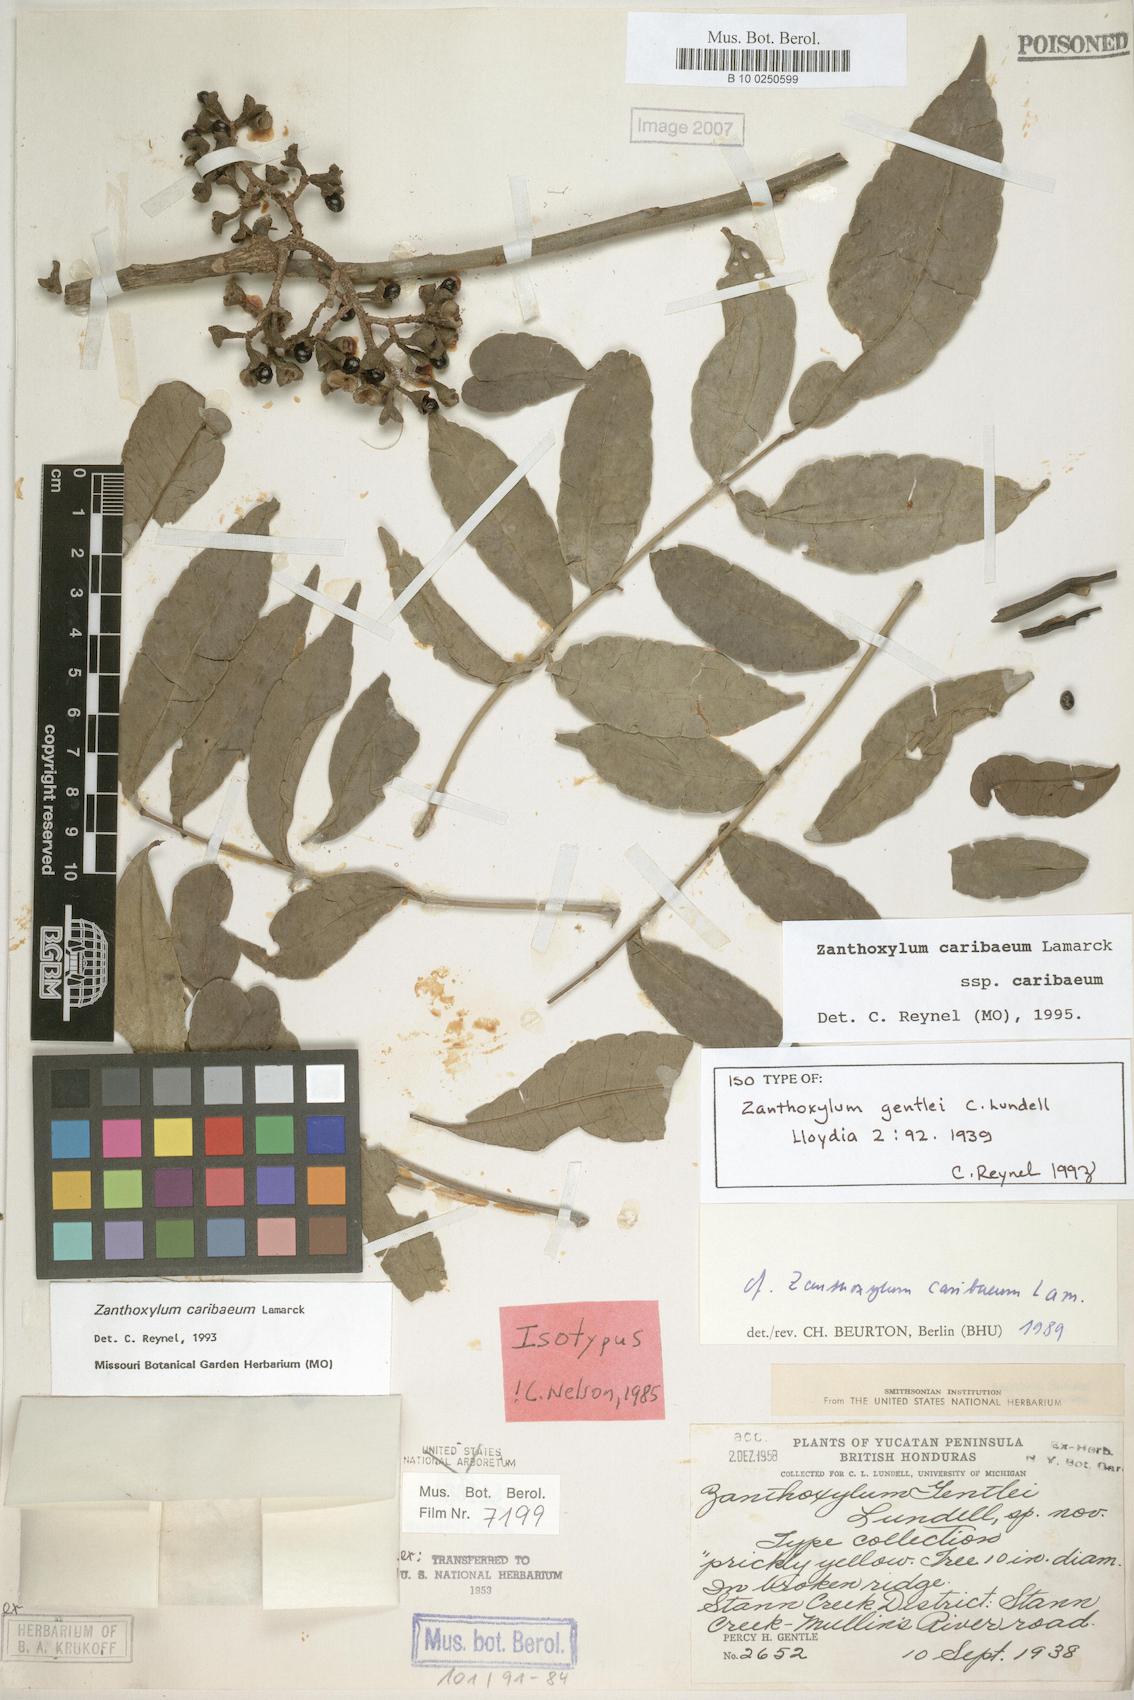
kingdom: Plantae
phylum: Tracheophyta
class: Magnoliopsida
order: Sapindales
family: Rutaceae
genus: Zanthoxylum
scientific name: Zanthoxylum caribaeum
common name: Prickly yellow
